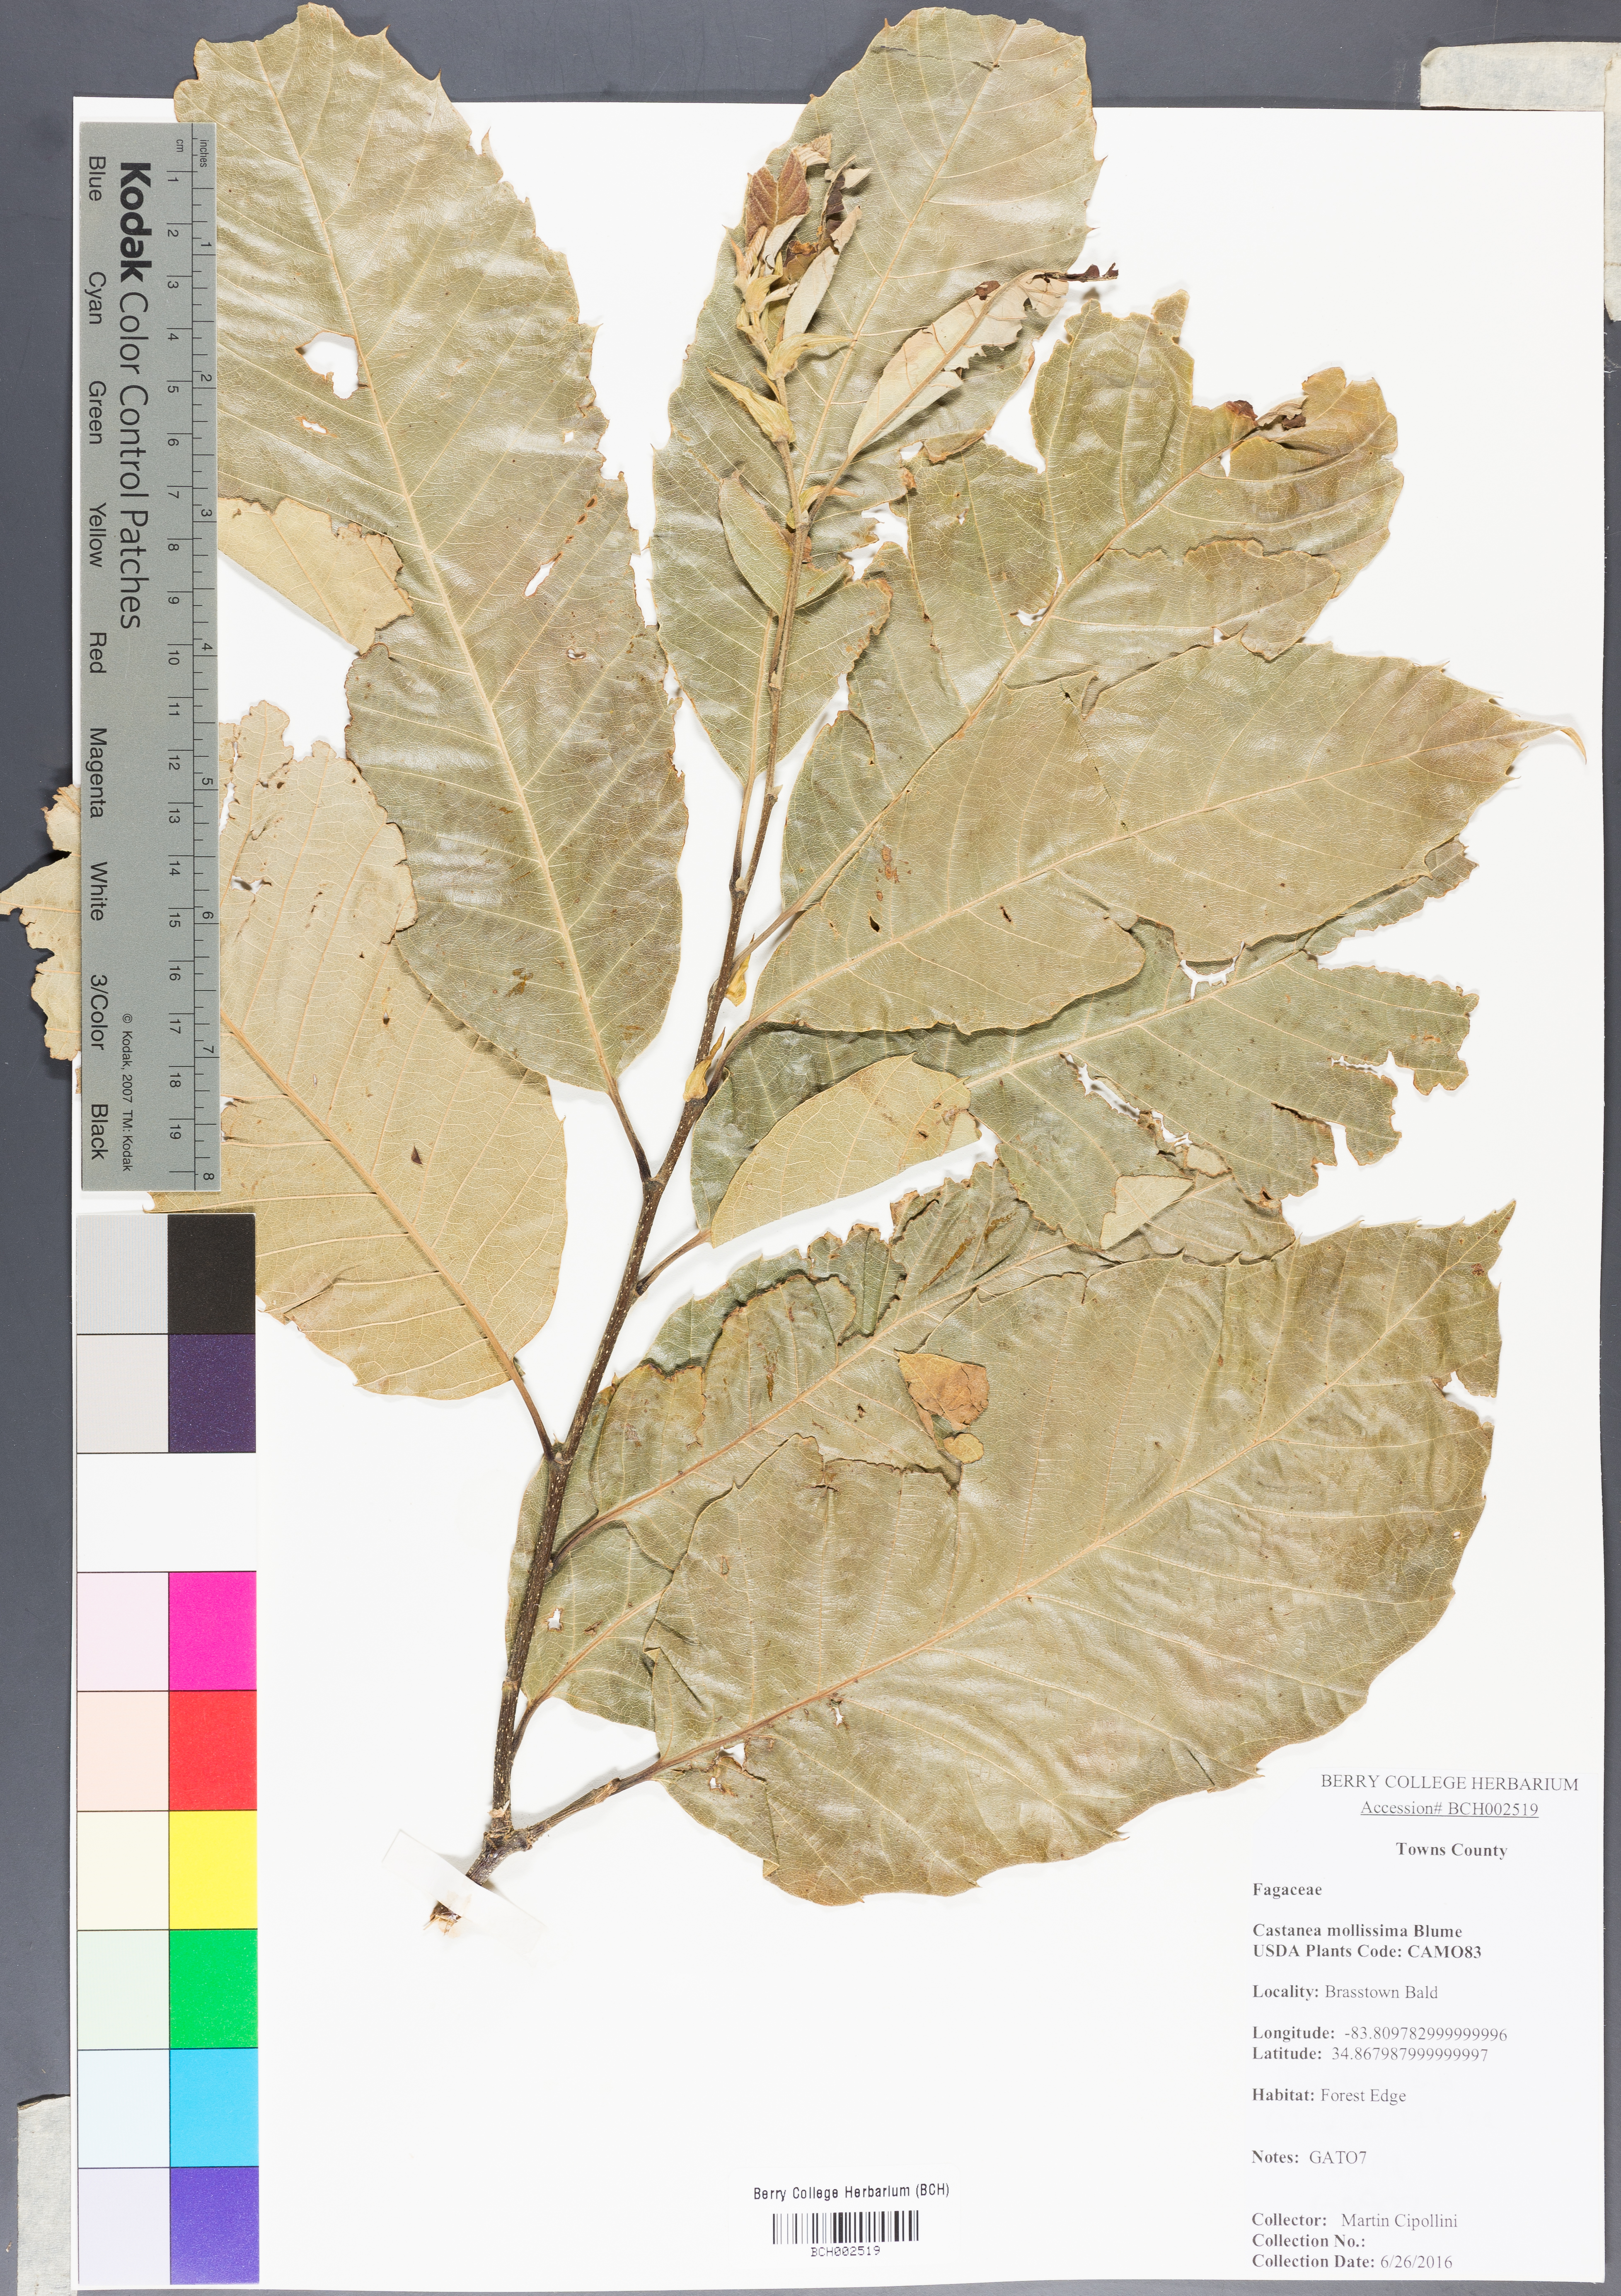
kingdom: Plantae
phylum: Tracheophyta
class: Magnoliopsida
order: Fagales
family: Fagaceae
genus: Castanea
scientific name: Castanea mollissima
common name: Chinese chestnut
